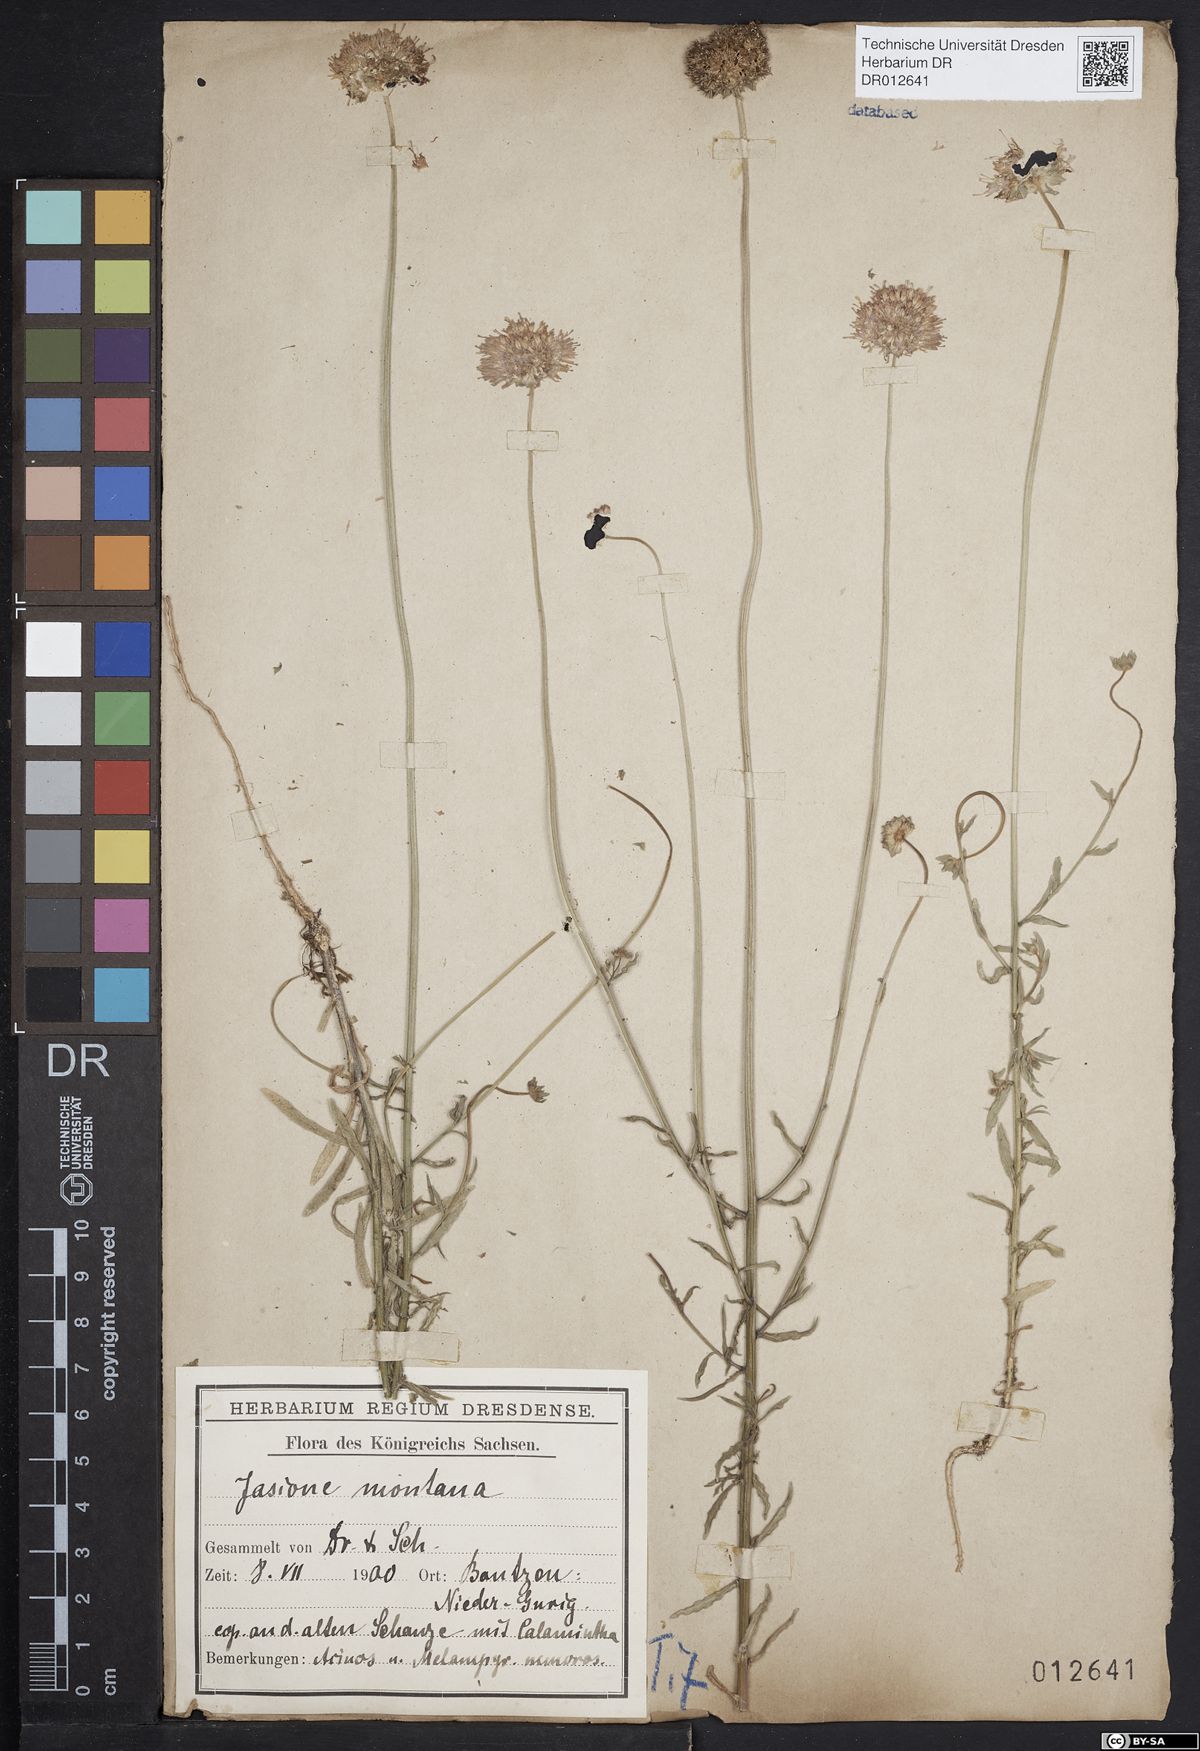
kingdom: Plantae
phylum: Tracheophyta
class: Magnoliopsida
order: Asterales
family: Campanulaceae
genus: Jasione
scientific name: Jasione montana
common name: Sheep's-bit
